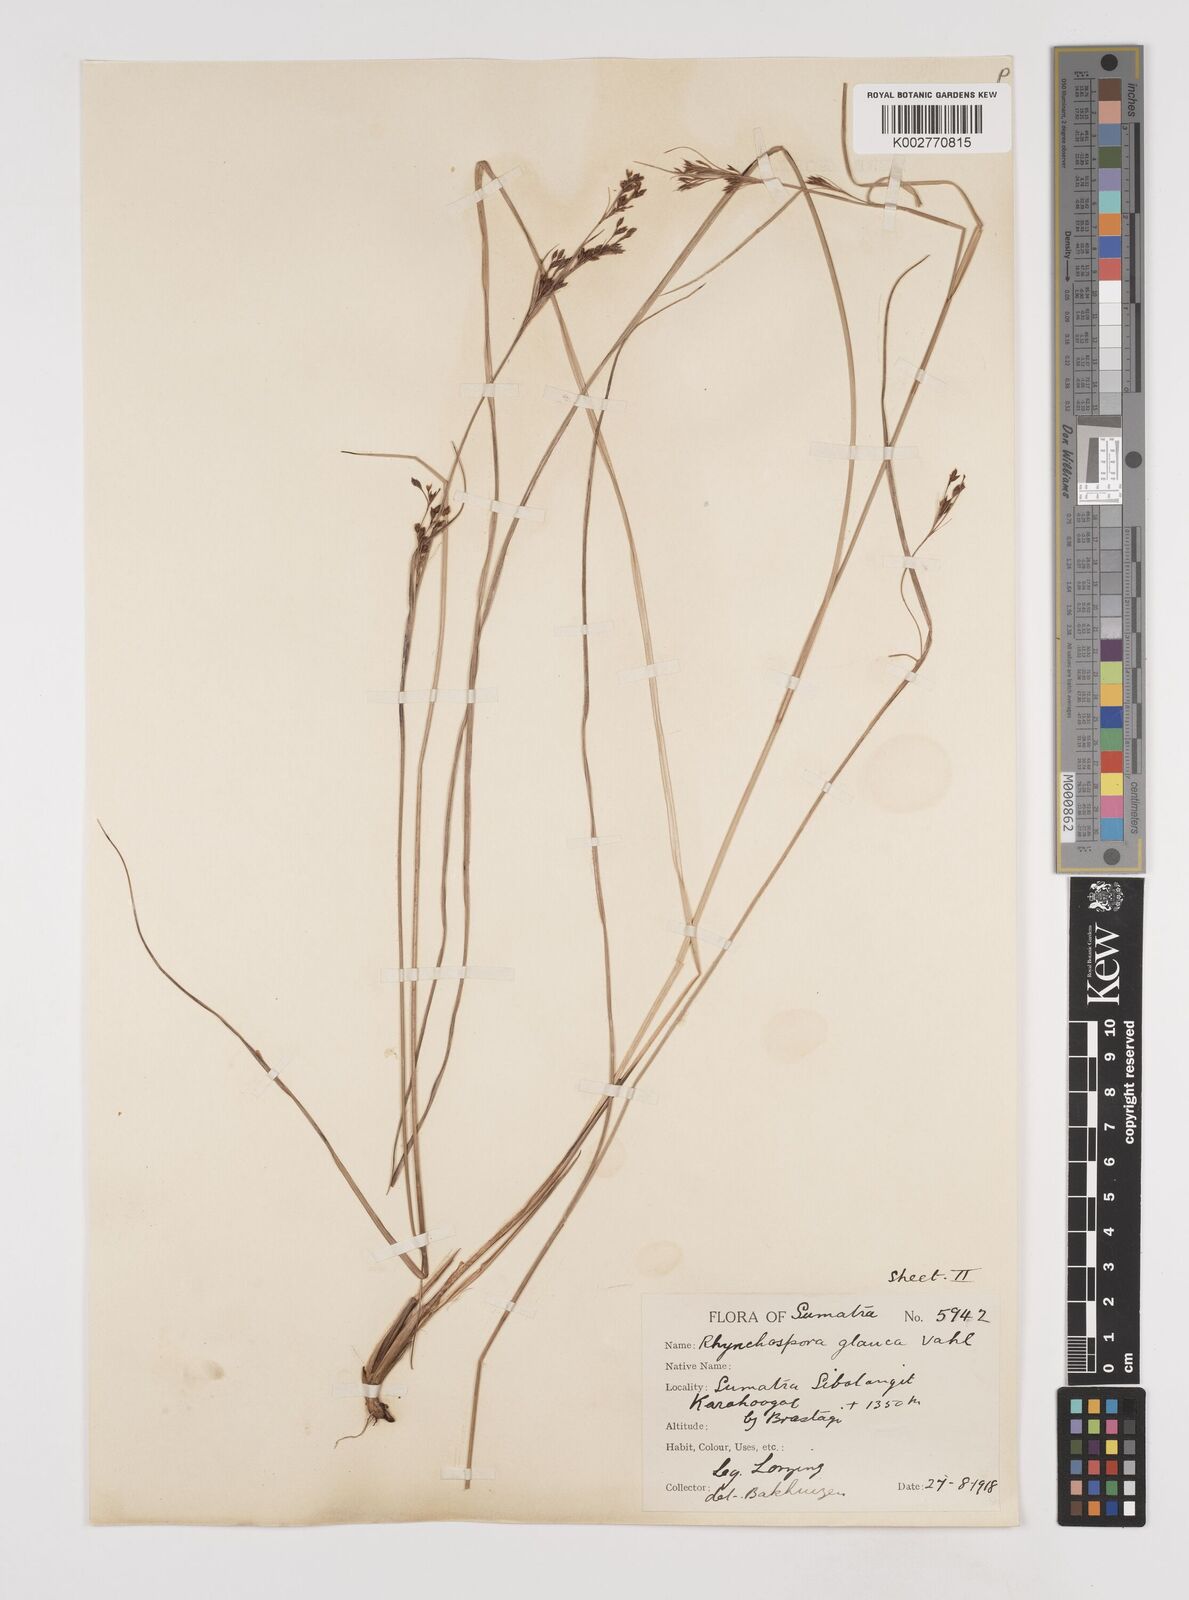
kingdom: Plantae
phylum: Tracheophyta
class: Liliopsida
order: Poales
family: Cyperaceae
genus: Rhynchospora
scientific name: Rhynchospora rugosa
